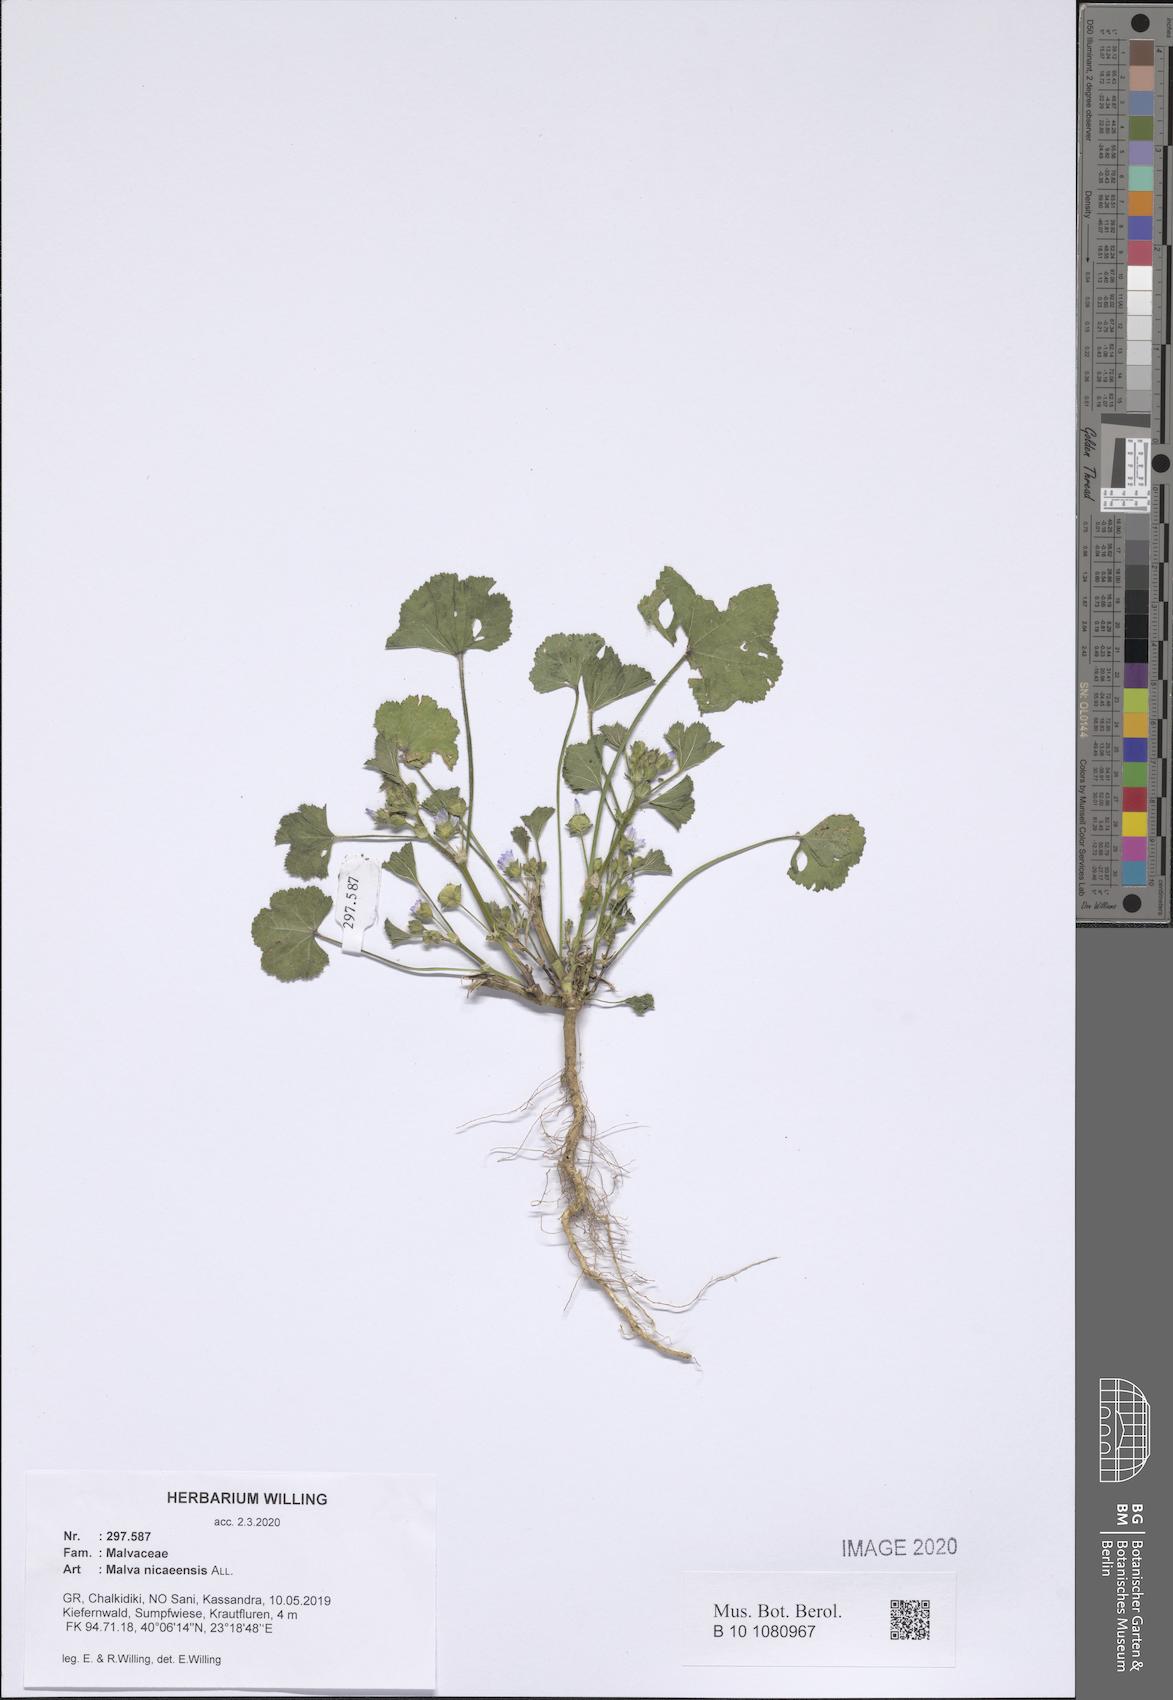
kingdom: Plantae
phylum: Tracheophyta
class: Magnoliopsida
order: Malvales
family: Malvaceae
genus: Malva
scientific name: Malva nicaeensis
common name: French mallow
